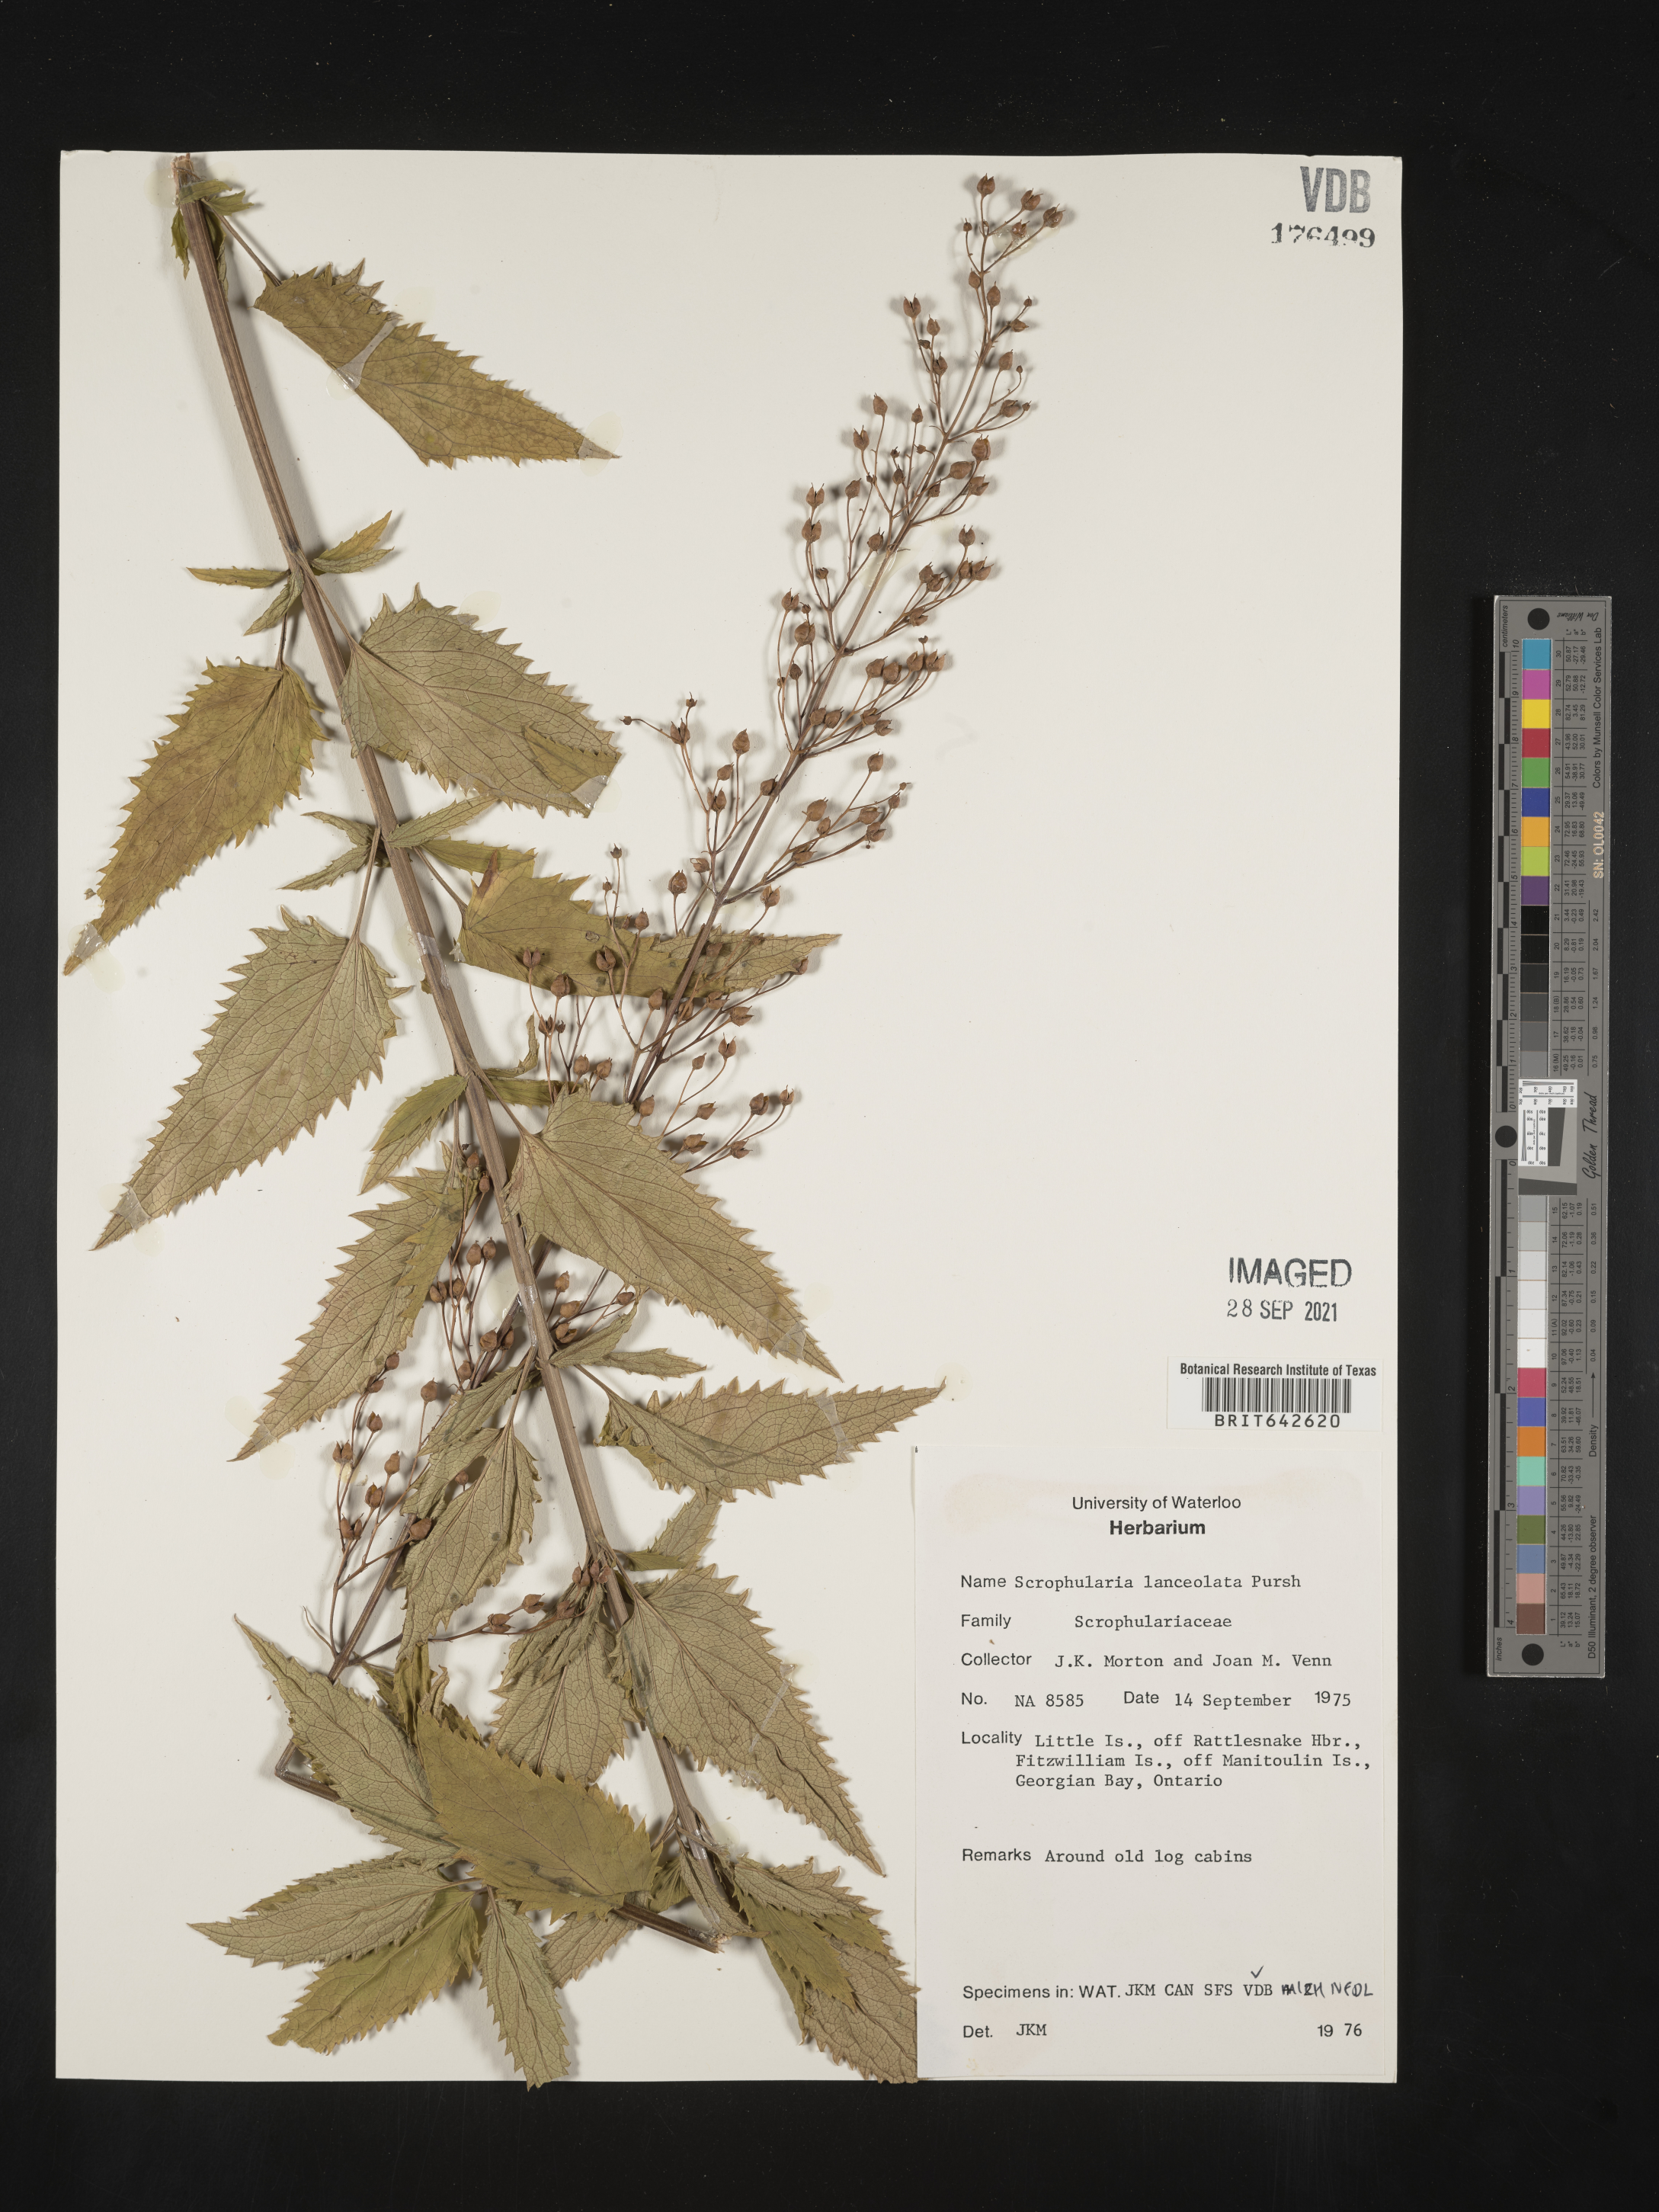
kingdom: Plantae
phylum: Tracheophyta
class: Magnoliopsida
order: Lamiales
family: Scrophulariaceae
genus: Scrophularia
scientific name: Scrophularia
